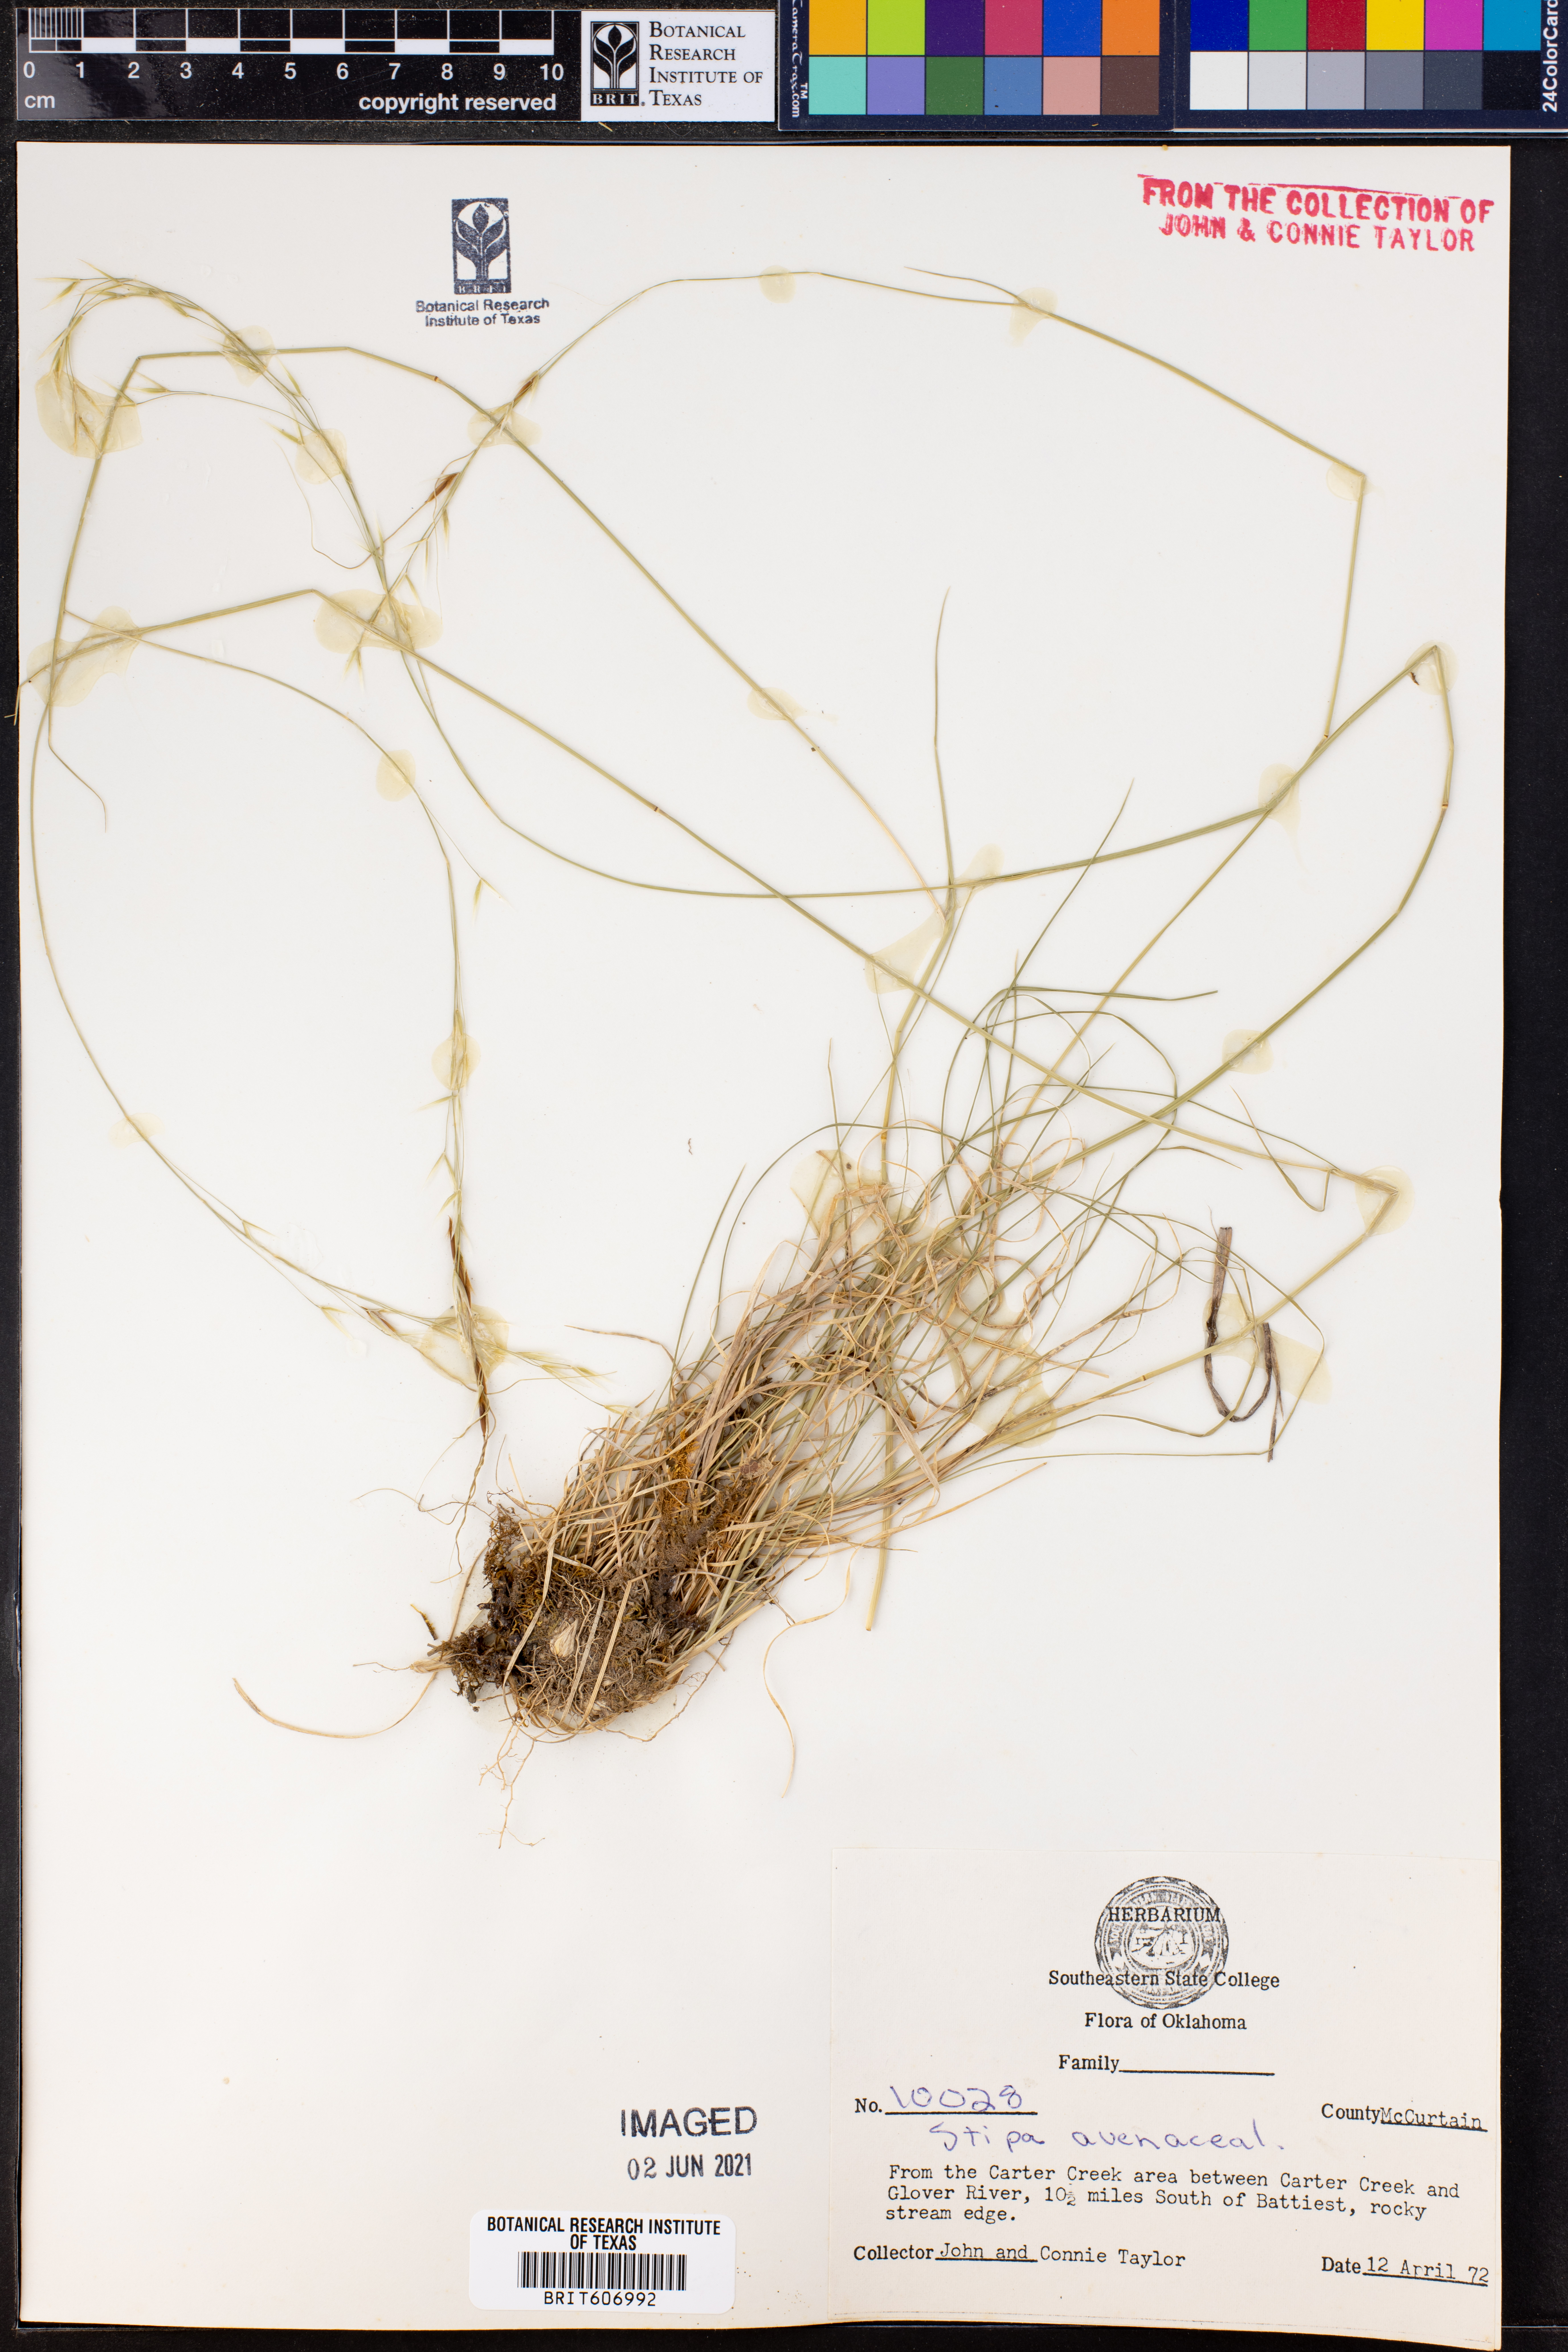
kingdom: Plantae
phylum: Tracheophyta
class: Liliopsida
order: Poales
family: Poaceae
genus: Piptochaetium
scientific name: Piptochaetium avenaceum
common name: Black bunchgrass
